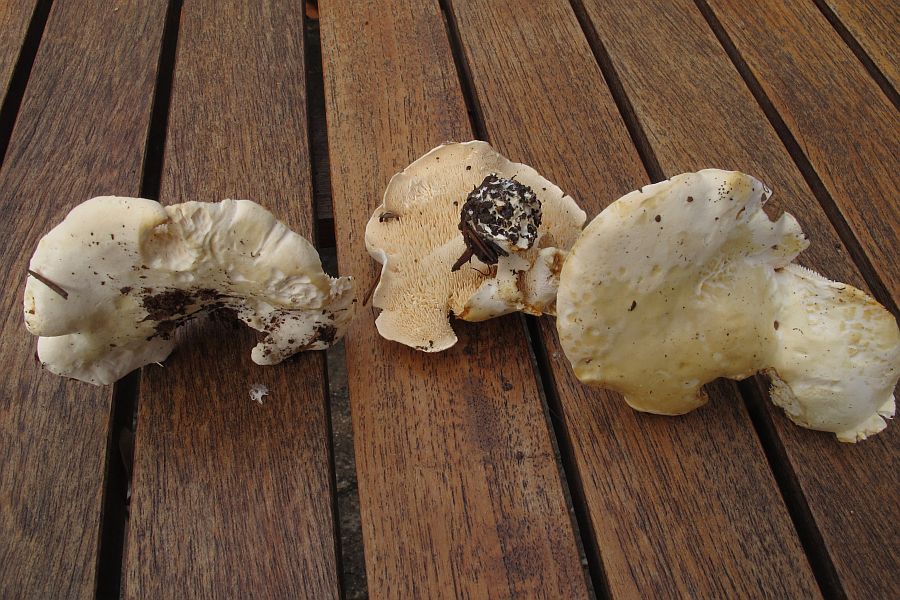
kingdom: Fungi
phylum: Basidiomycota
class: Agaricomycetes
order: Cantharellales
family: Hydnaceae
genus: Hydnum
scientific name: Hydnum repandum
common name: hvid pigsvamp
